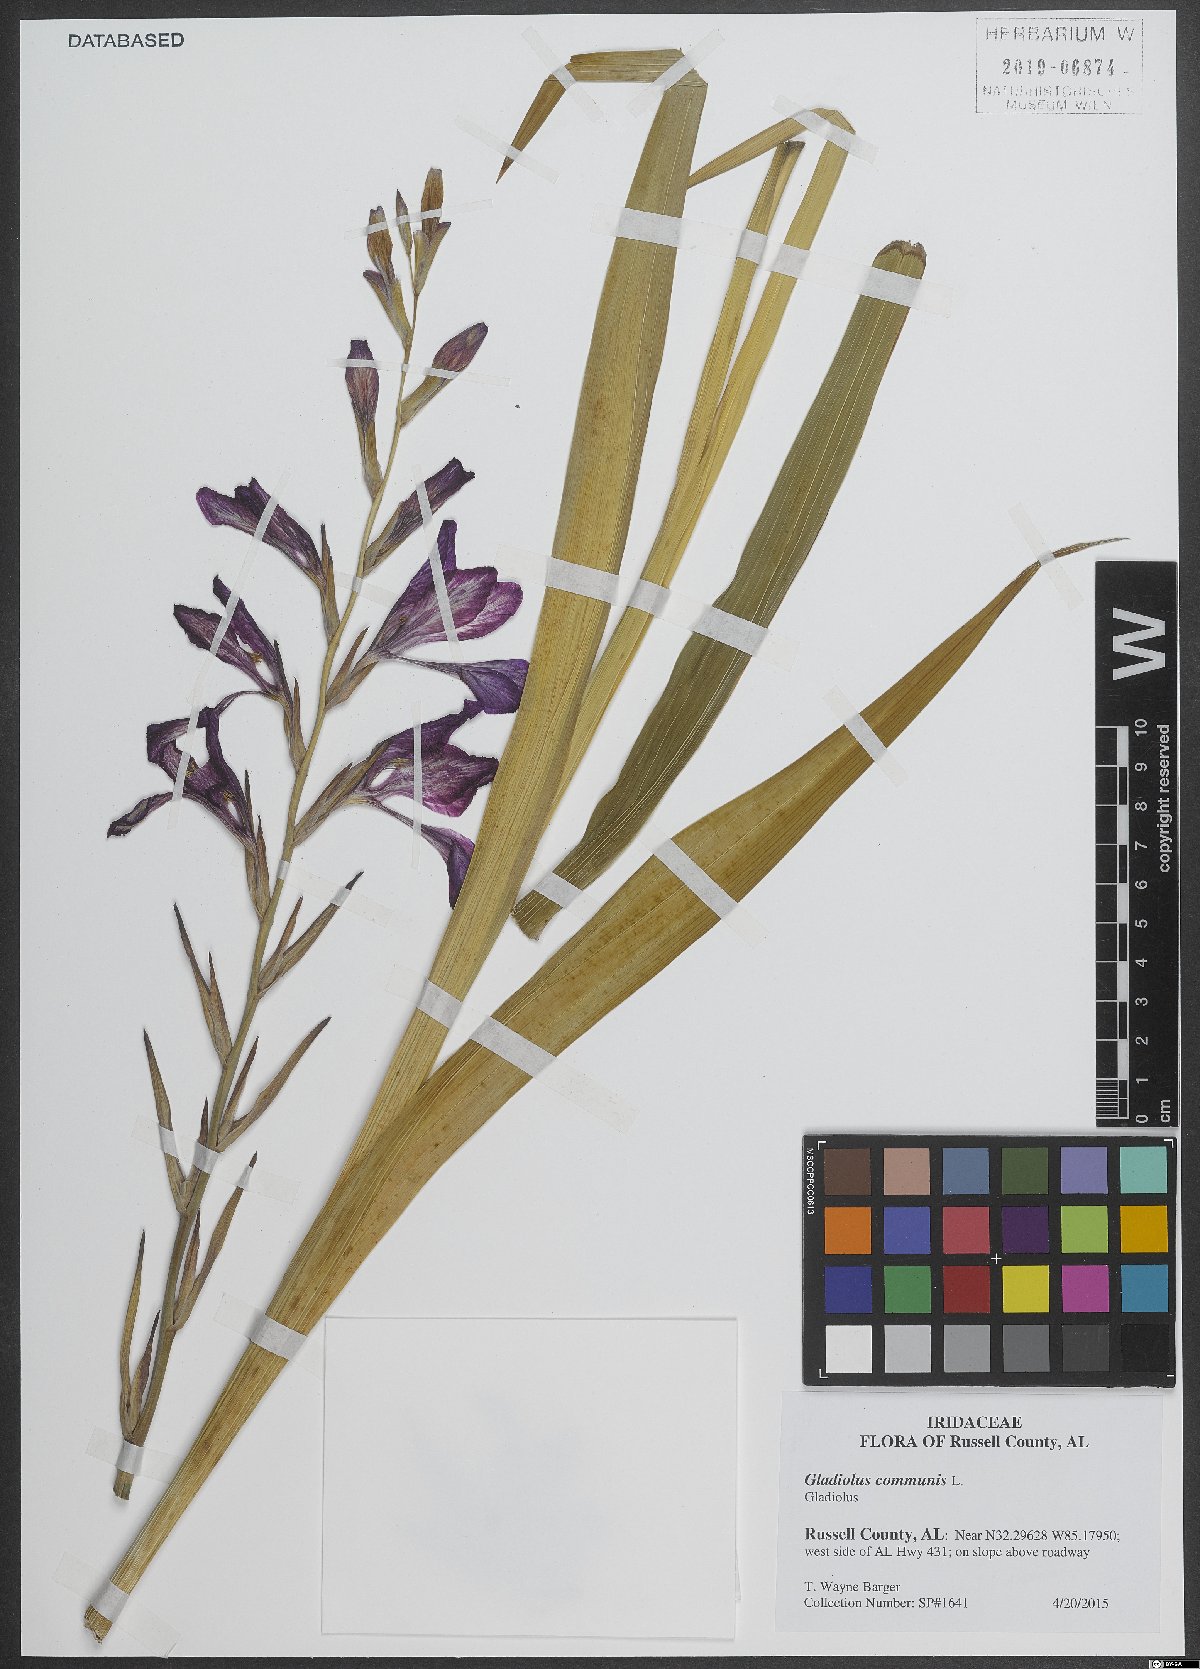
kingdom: Plantae
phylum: Tracheophyta
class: Liliopsida
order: Asparagales
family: Iridaceae
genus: Gladiolus
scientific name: Gladiolus communis
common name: Eastern gladiolus
